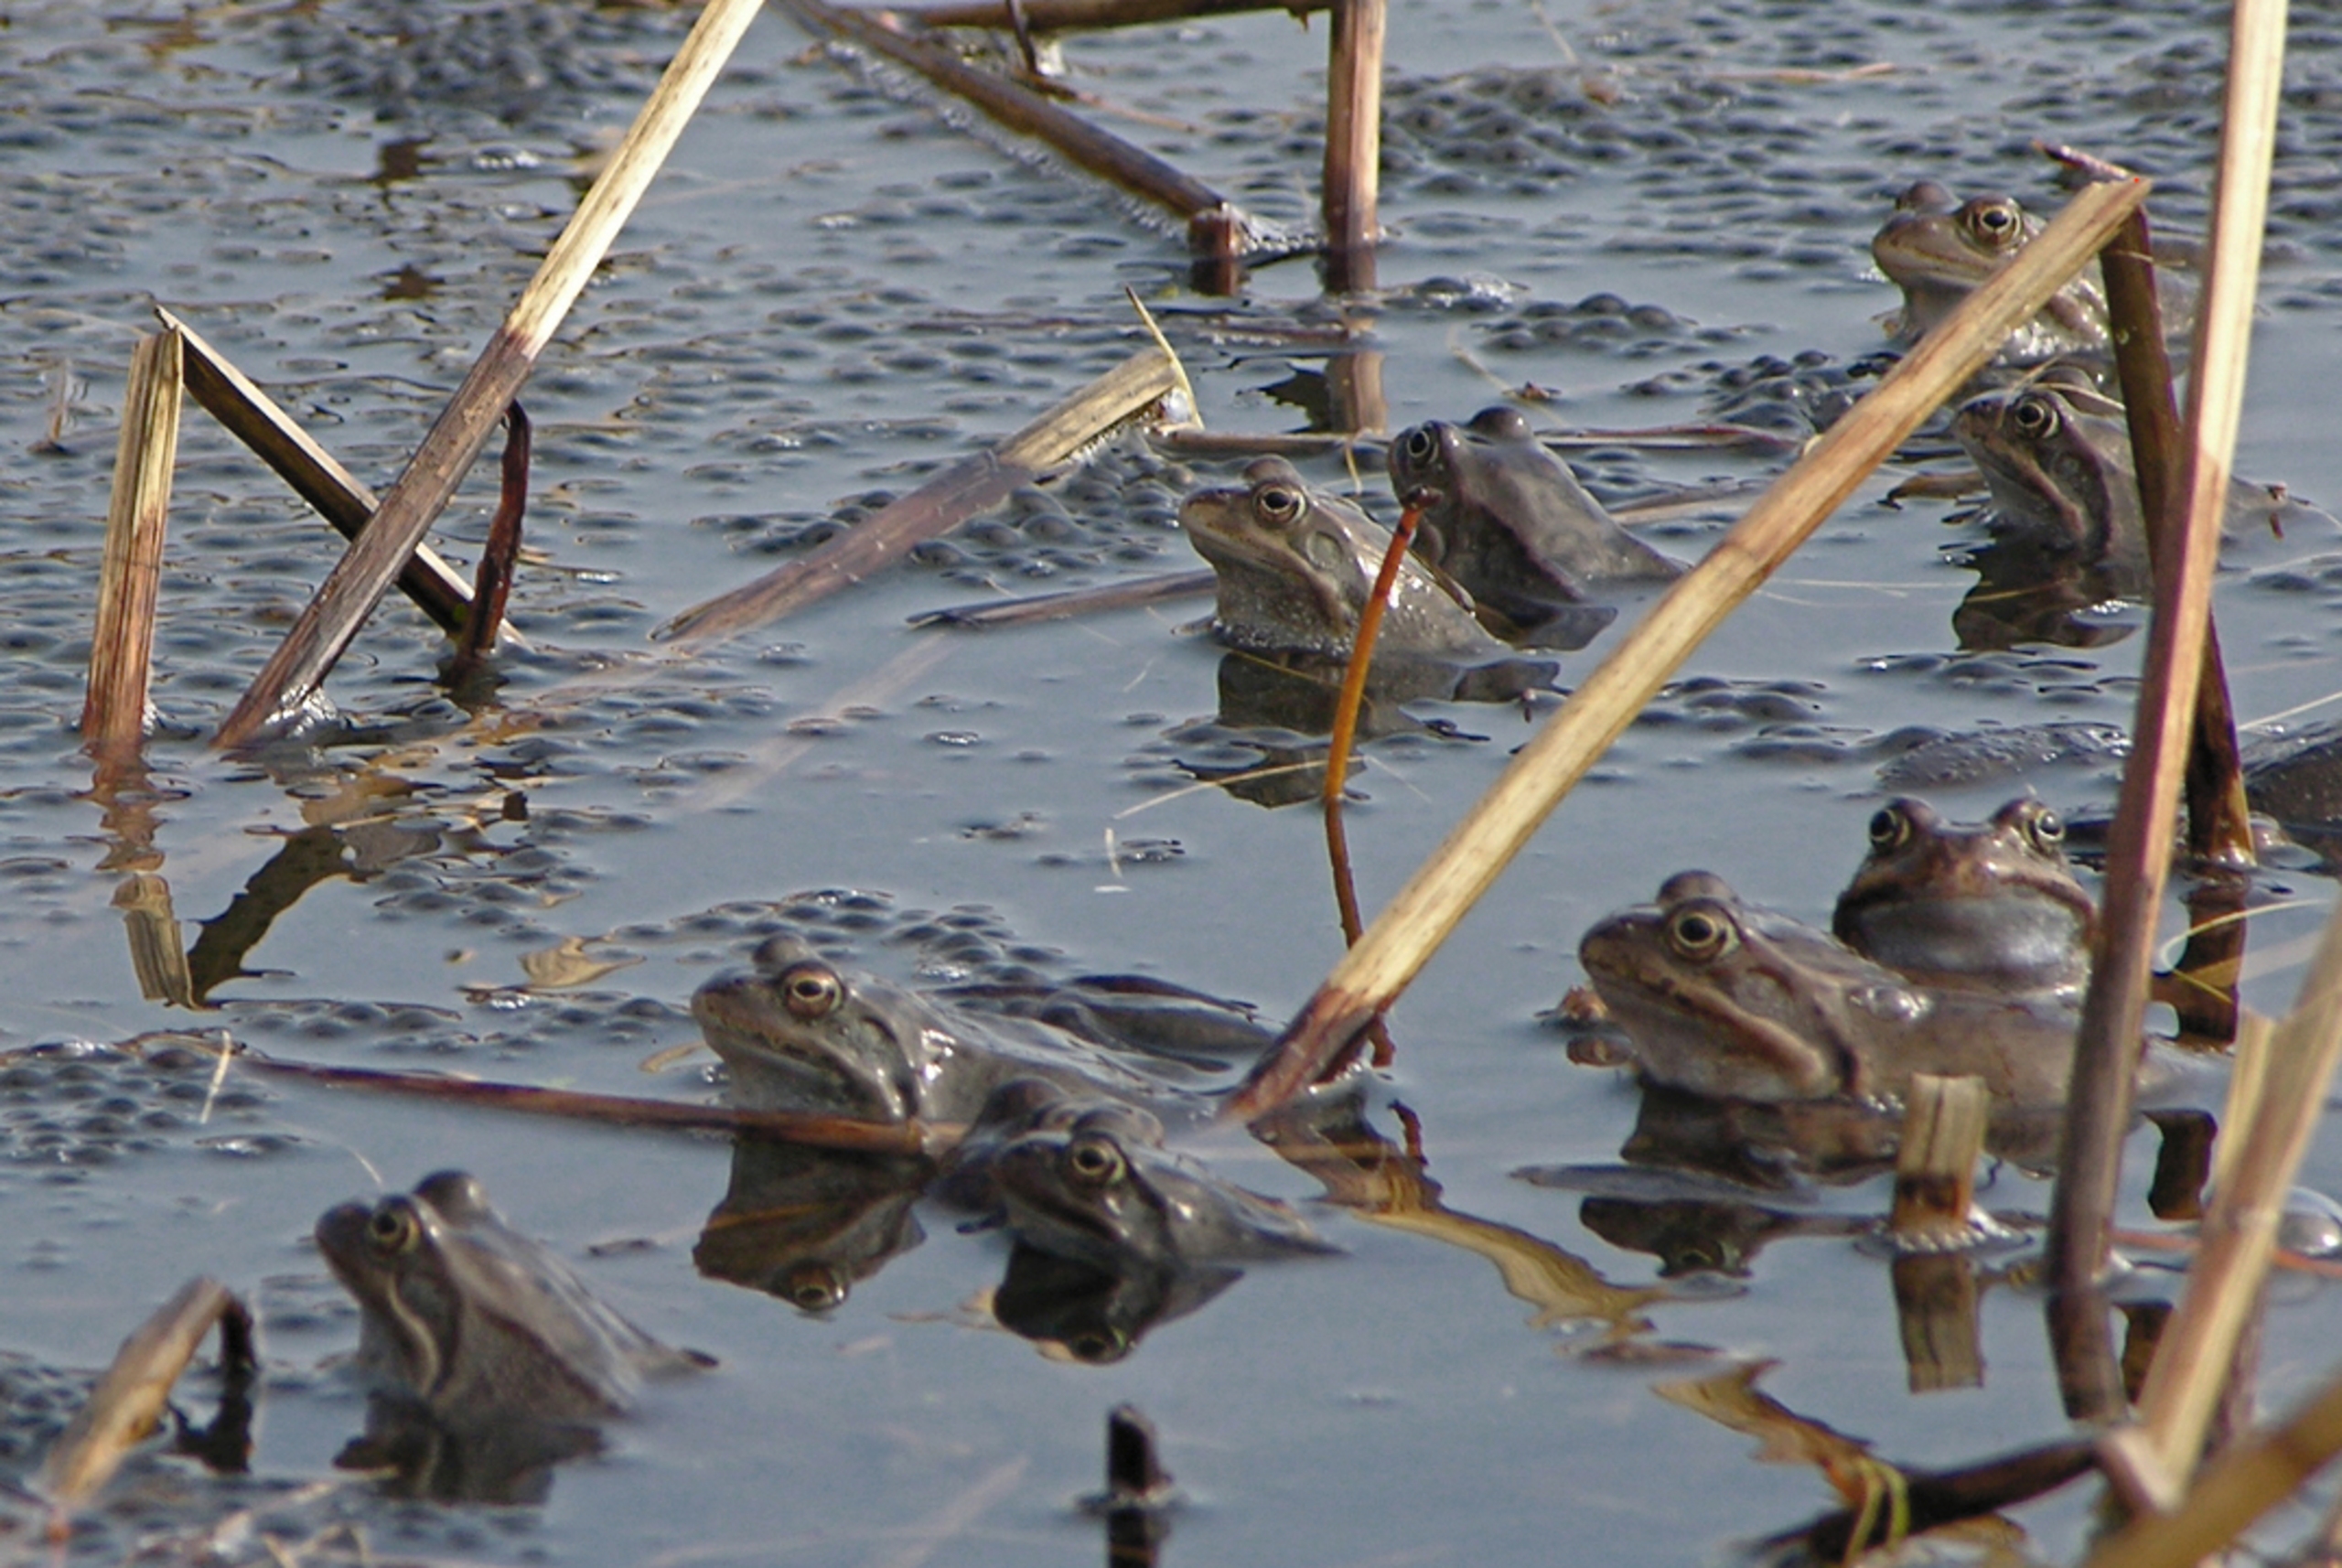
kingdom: Animalia
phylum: Chordata
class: Amphibia
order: Anura
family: Ranidae
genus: Rana
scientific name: Rana temporaria
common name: Butsnudet frø
